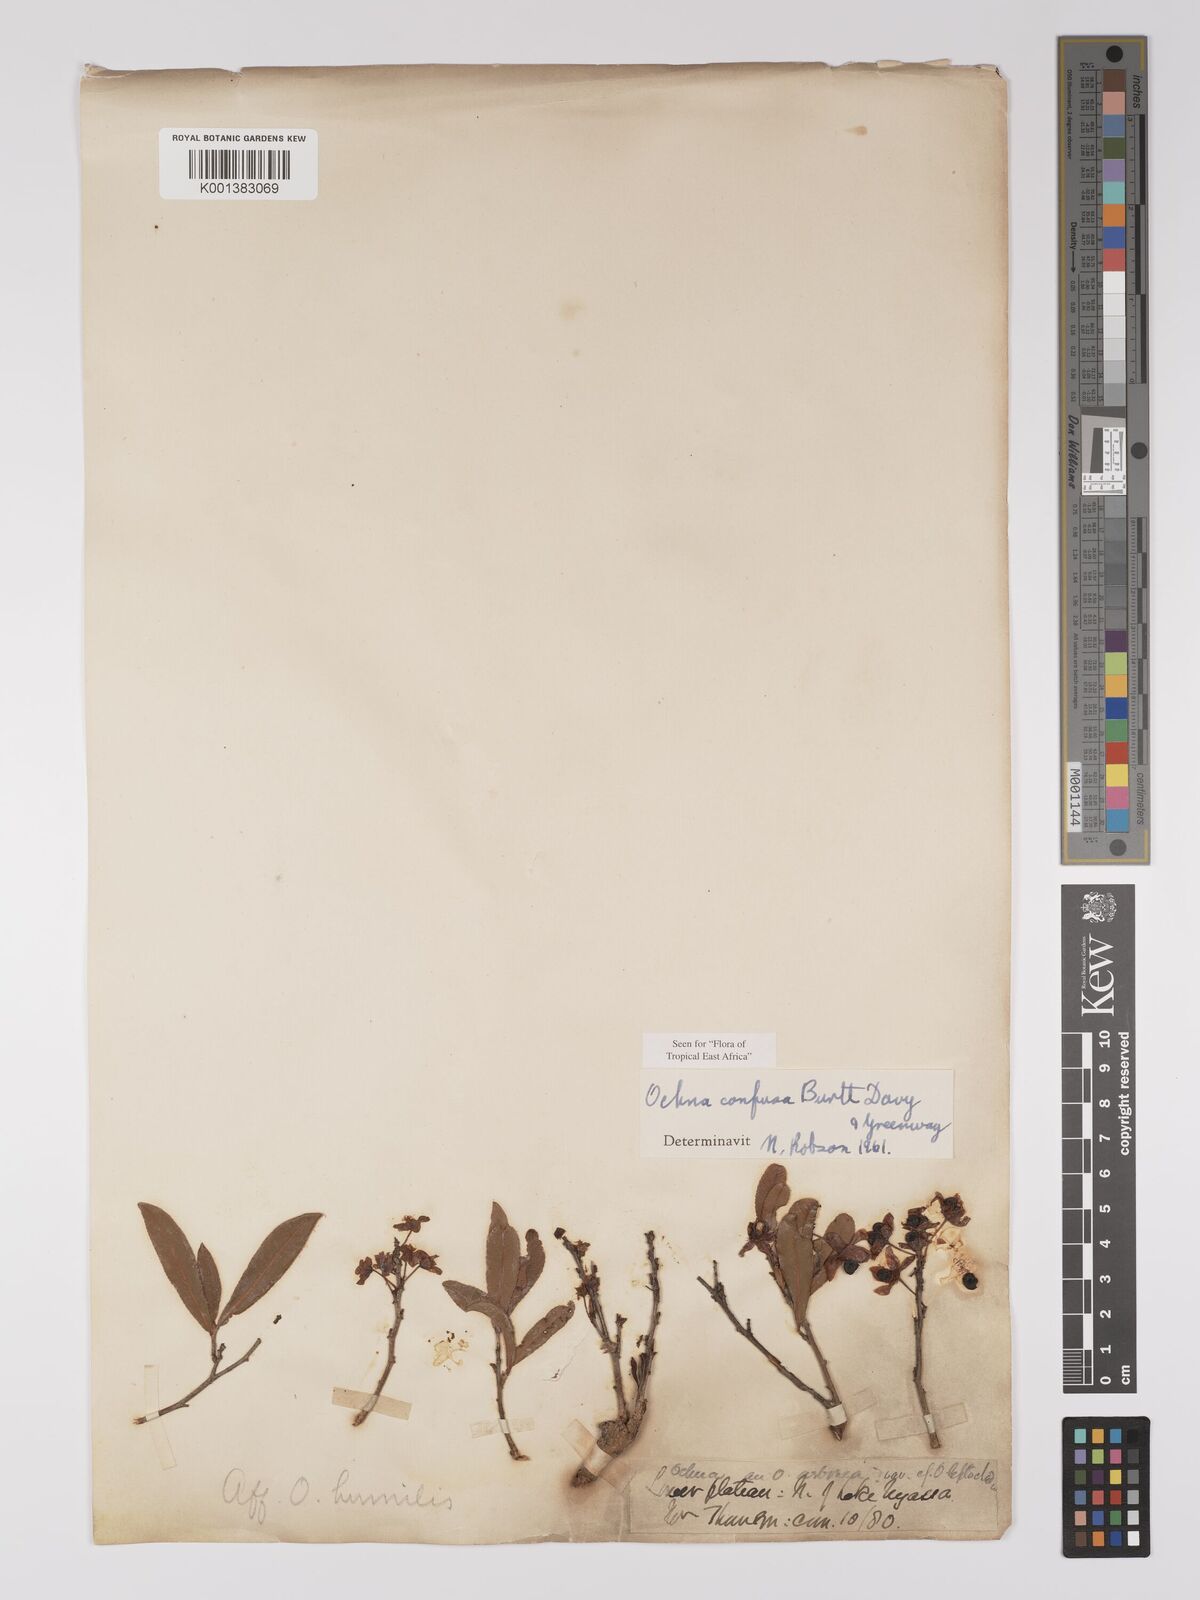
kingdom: Plantae
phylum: Tracheophyta
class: Magnoliopsida
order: Malpighiales
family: Ochnaceae
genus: Ochna
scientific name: Ochna confusa
